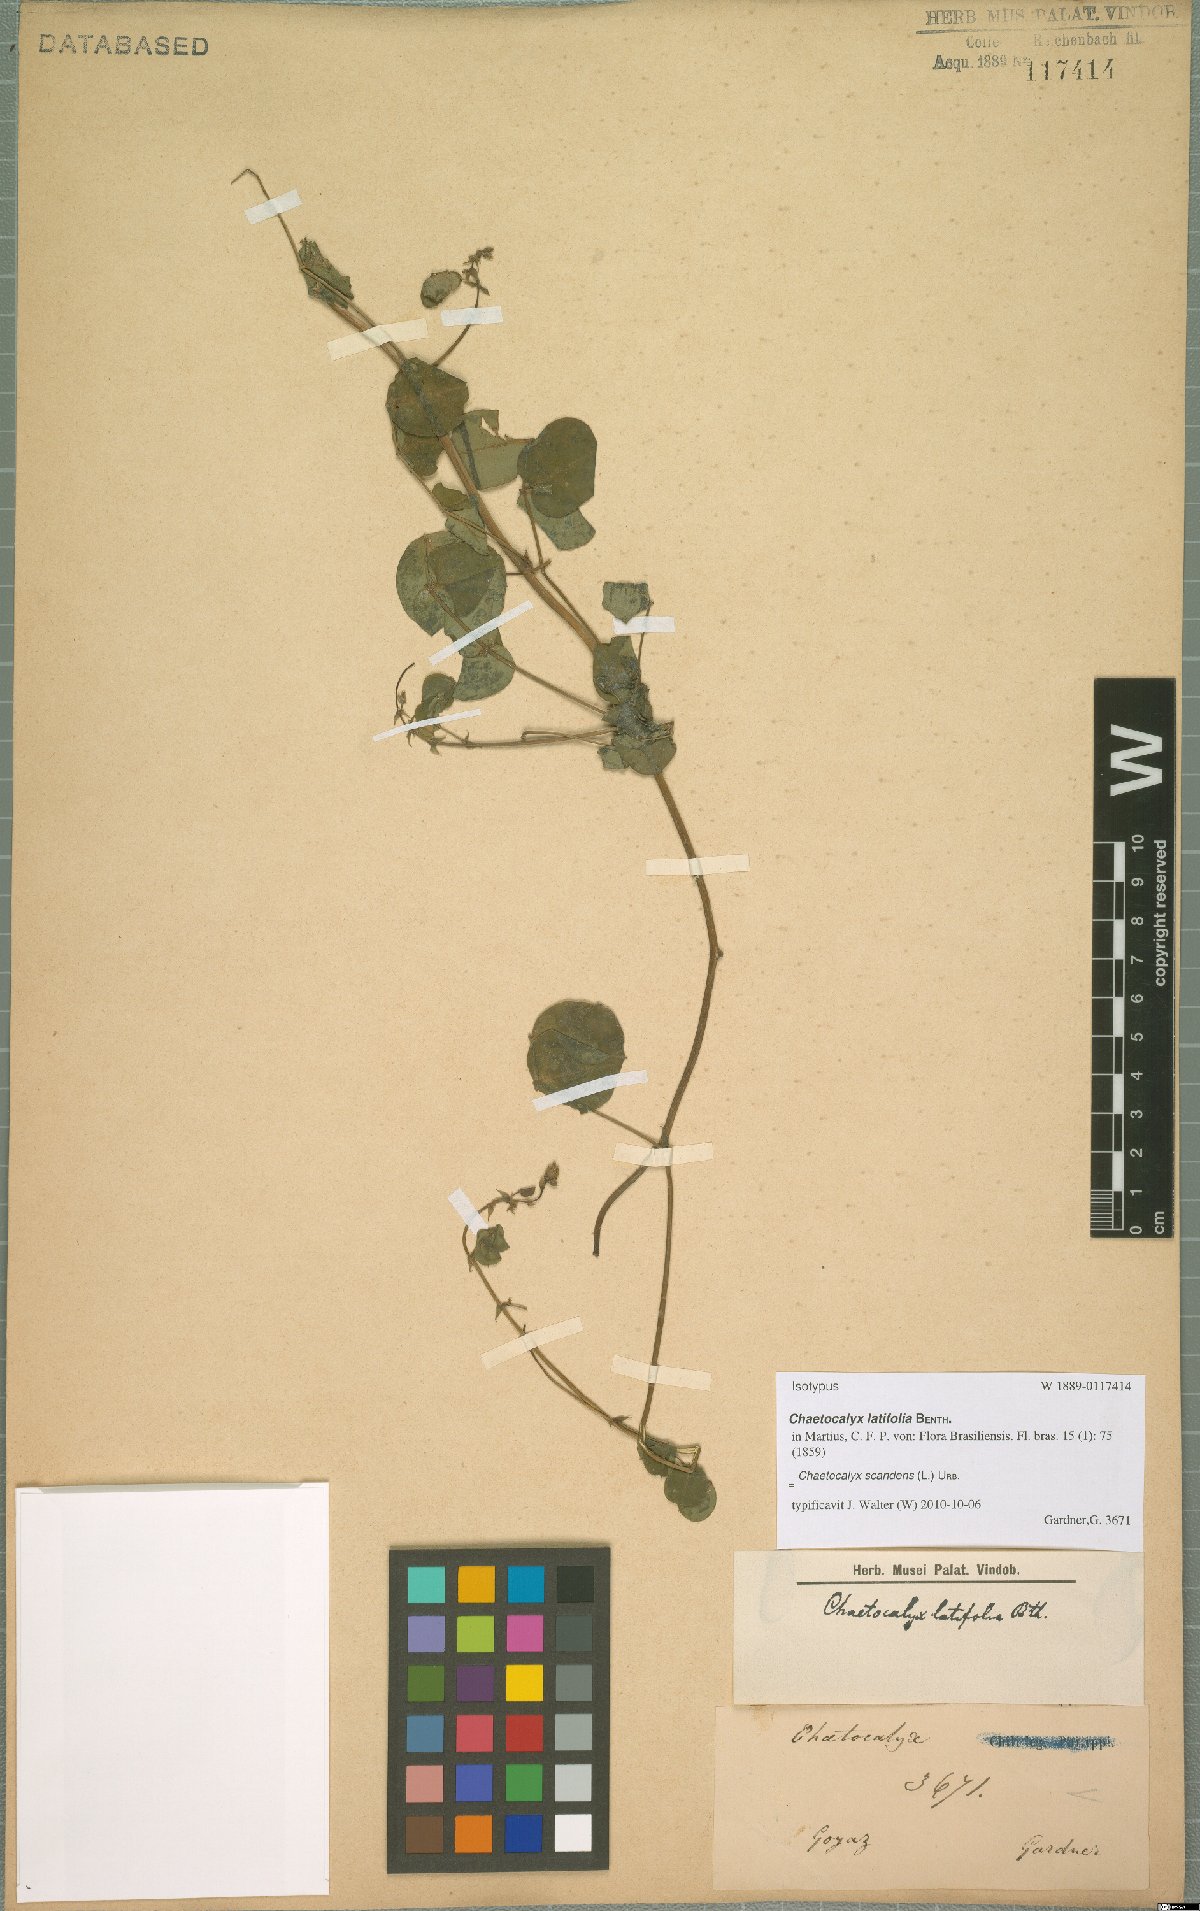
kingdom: Plantae
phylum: Tracheophyta
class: Magnoliopsida
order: Fabales
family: Fabaceae
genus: Nissolia
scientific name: Nissolia vincentina
